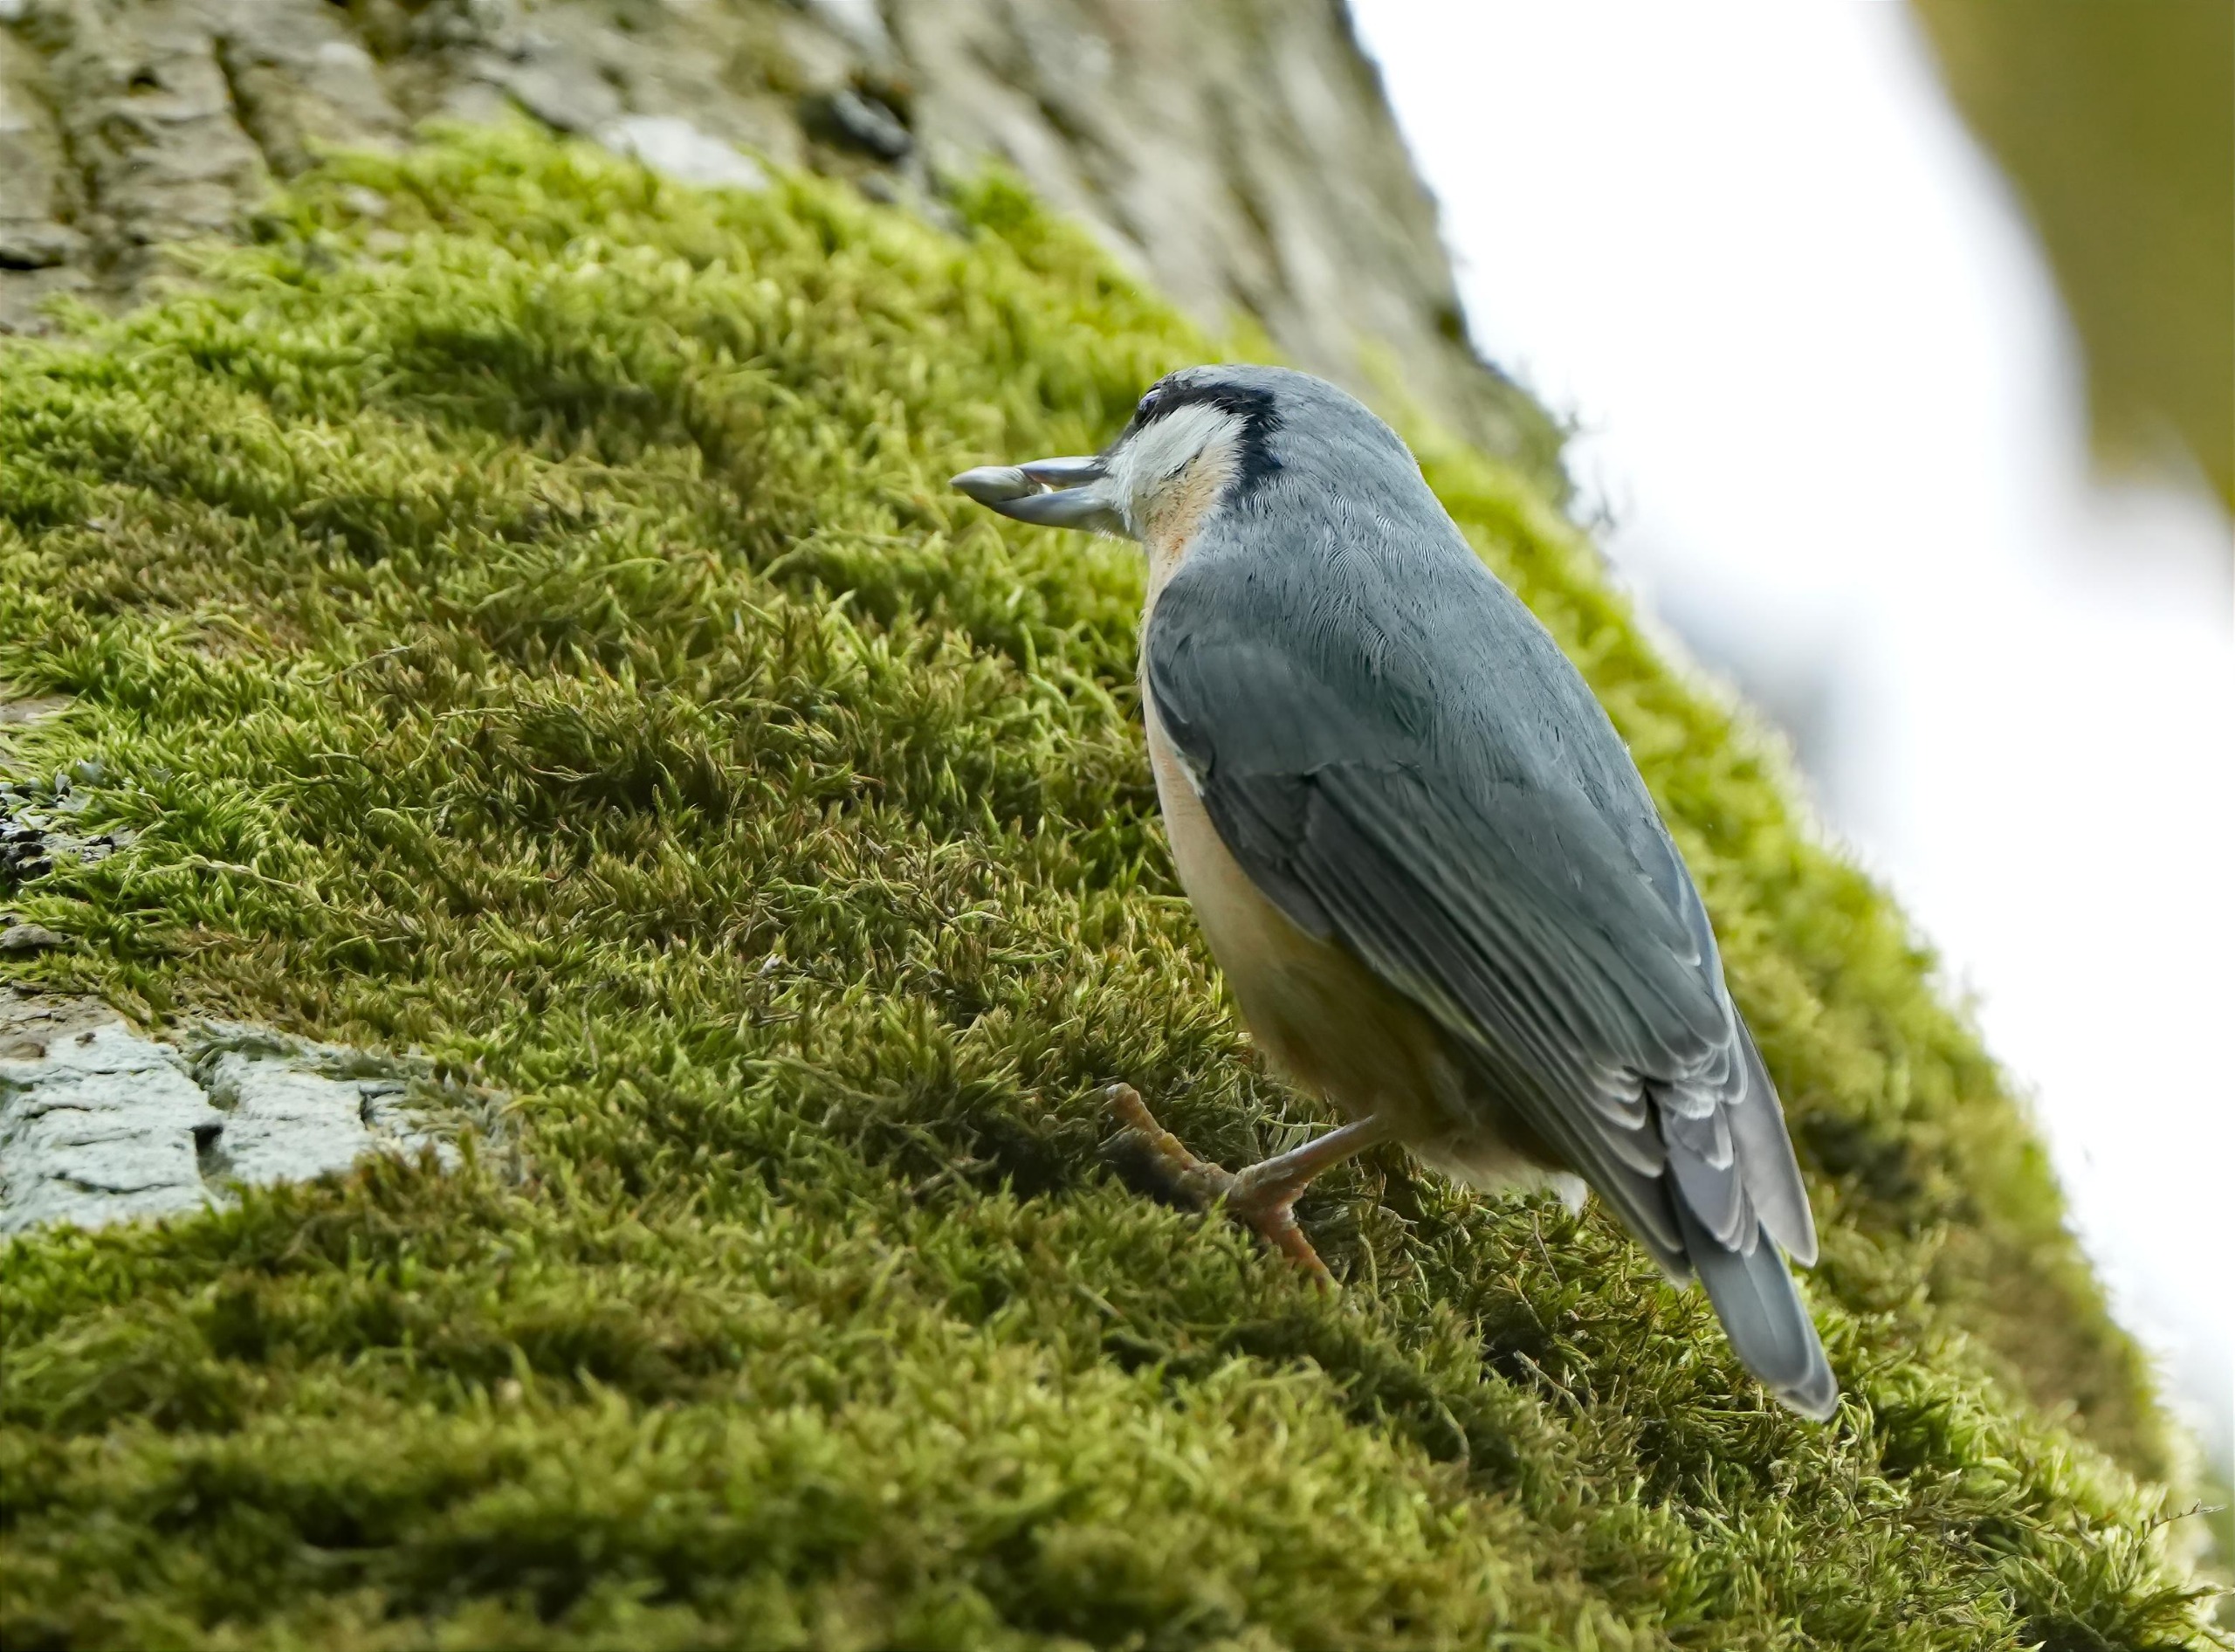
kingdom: Animalia
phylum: Chordata
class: Aves
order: Passeriformes
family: Sittidae
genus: Sitta
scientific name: Sitta europaea
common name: Spætmejse
